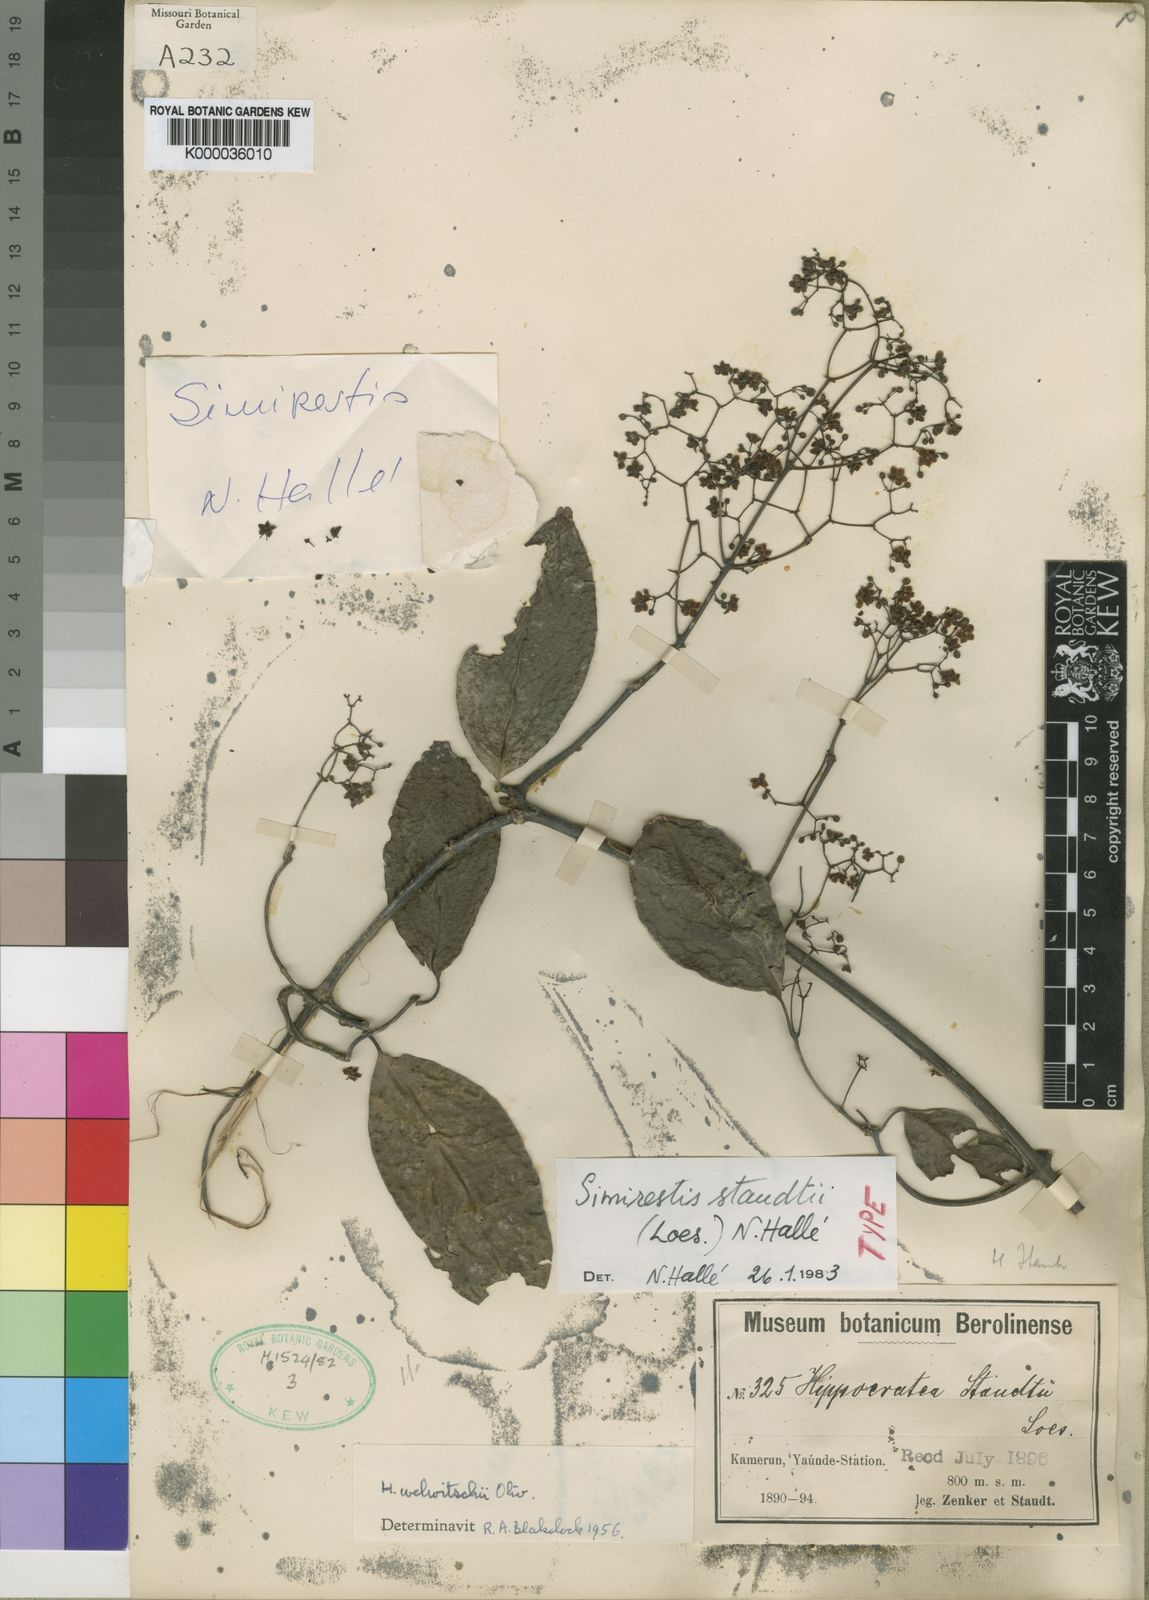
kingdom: Plantae
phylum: Tracheophyta
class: Magnoliopsida
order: Celastrales
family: Celastraceae
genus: Pristimera
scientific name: Pristimera
